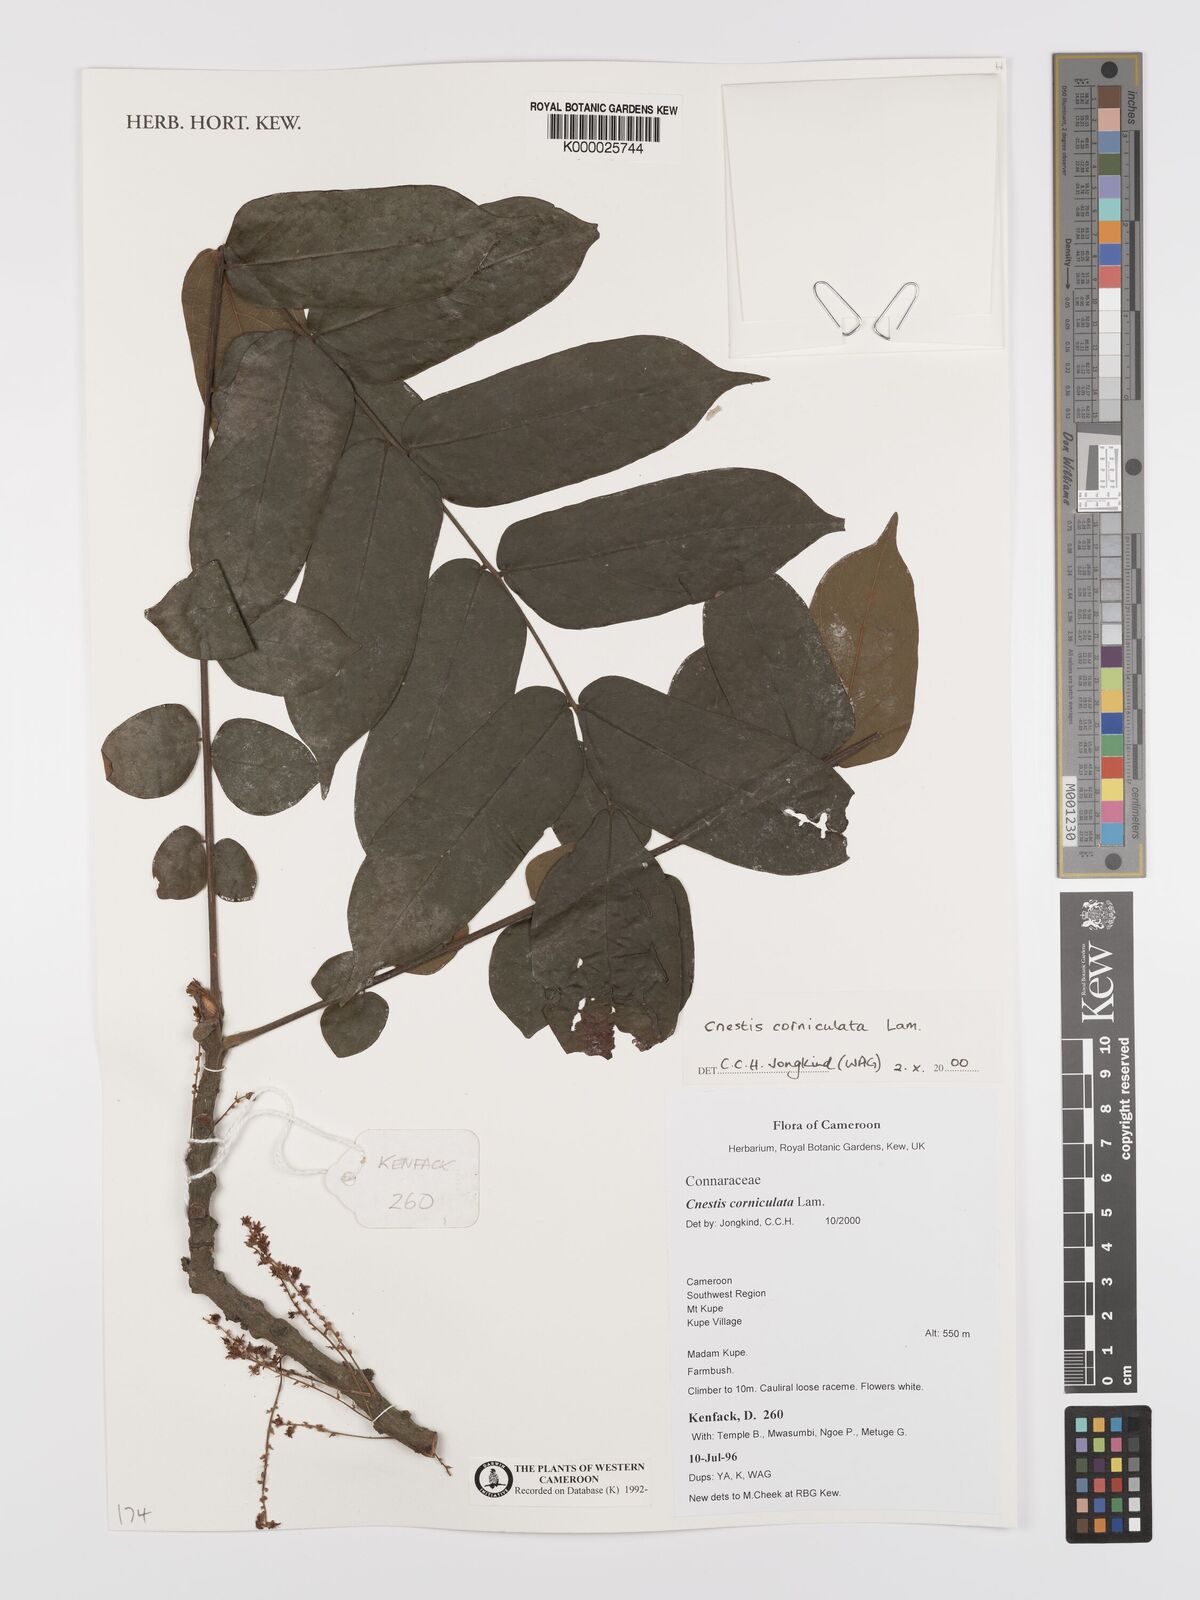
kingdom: Plantae
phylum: Tracheophyta
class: Magnoliopsida
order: Oxalidales
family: Connaraceae
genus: Cnestis
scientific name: Cnestis corniculata
